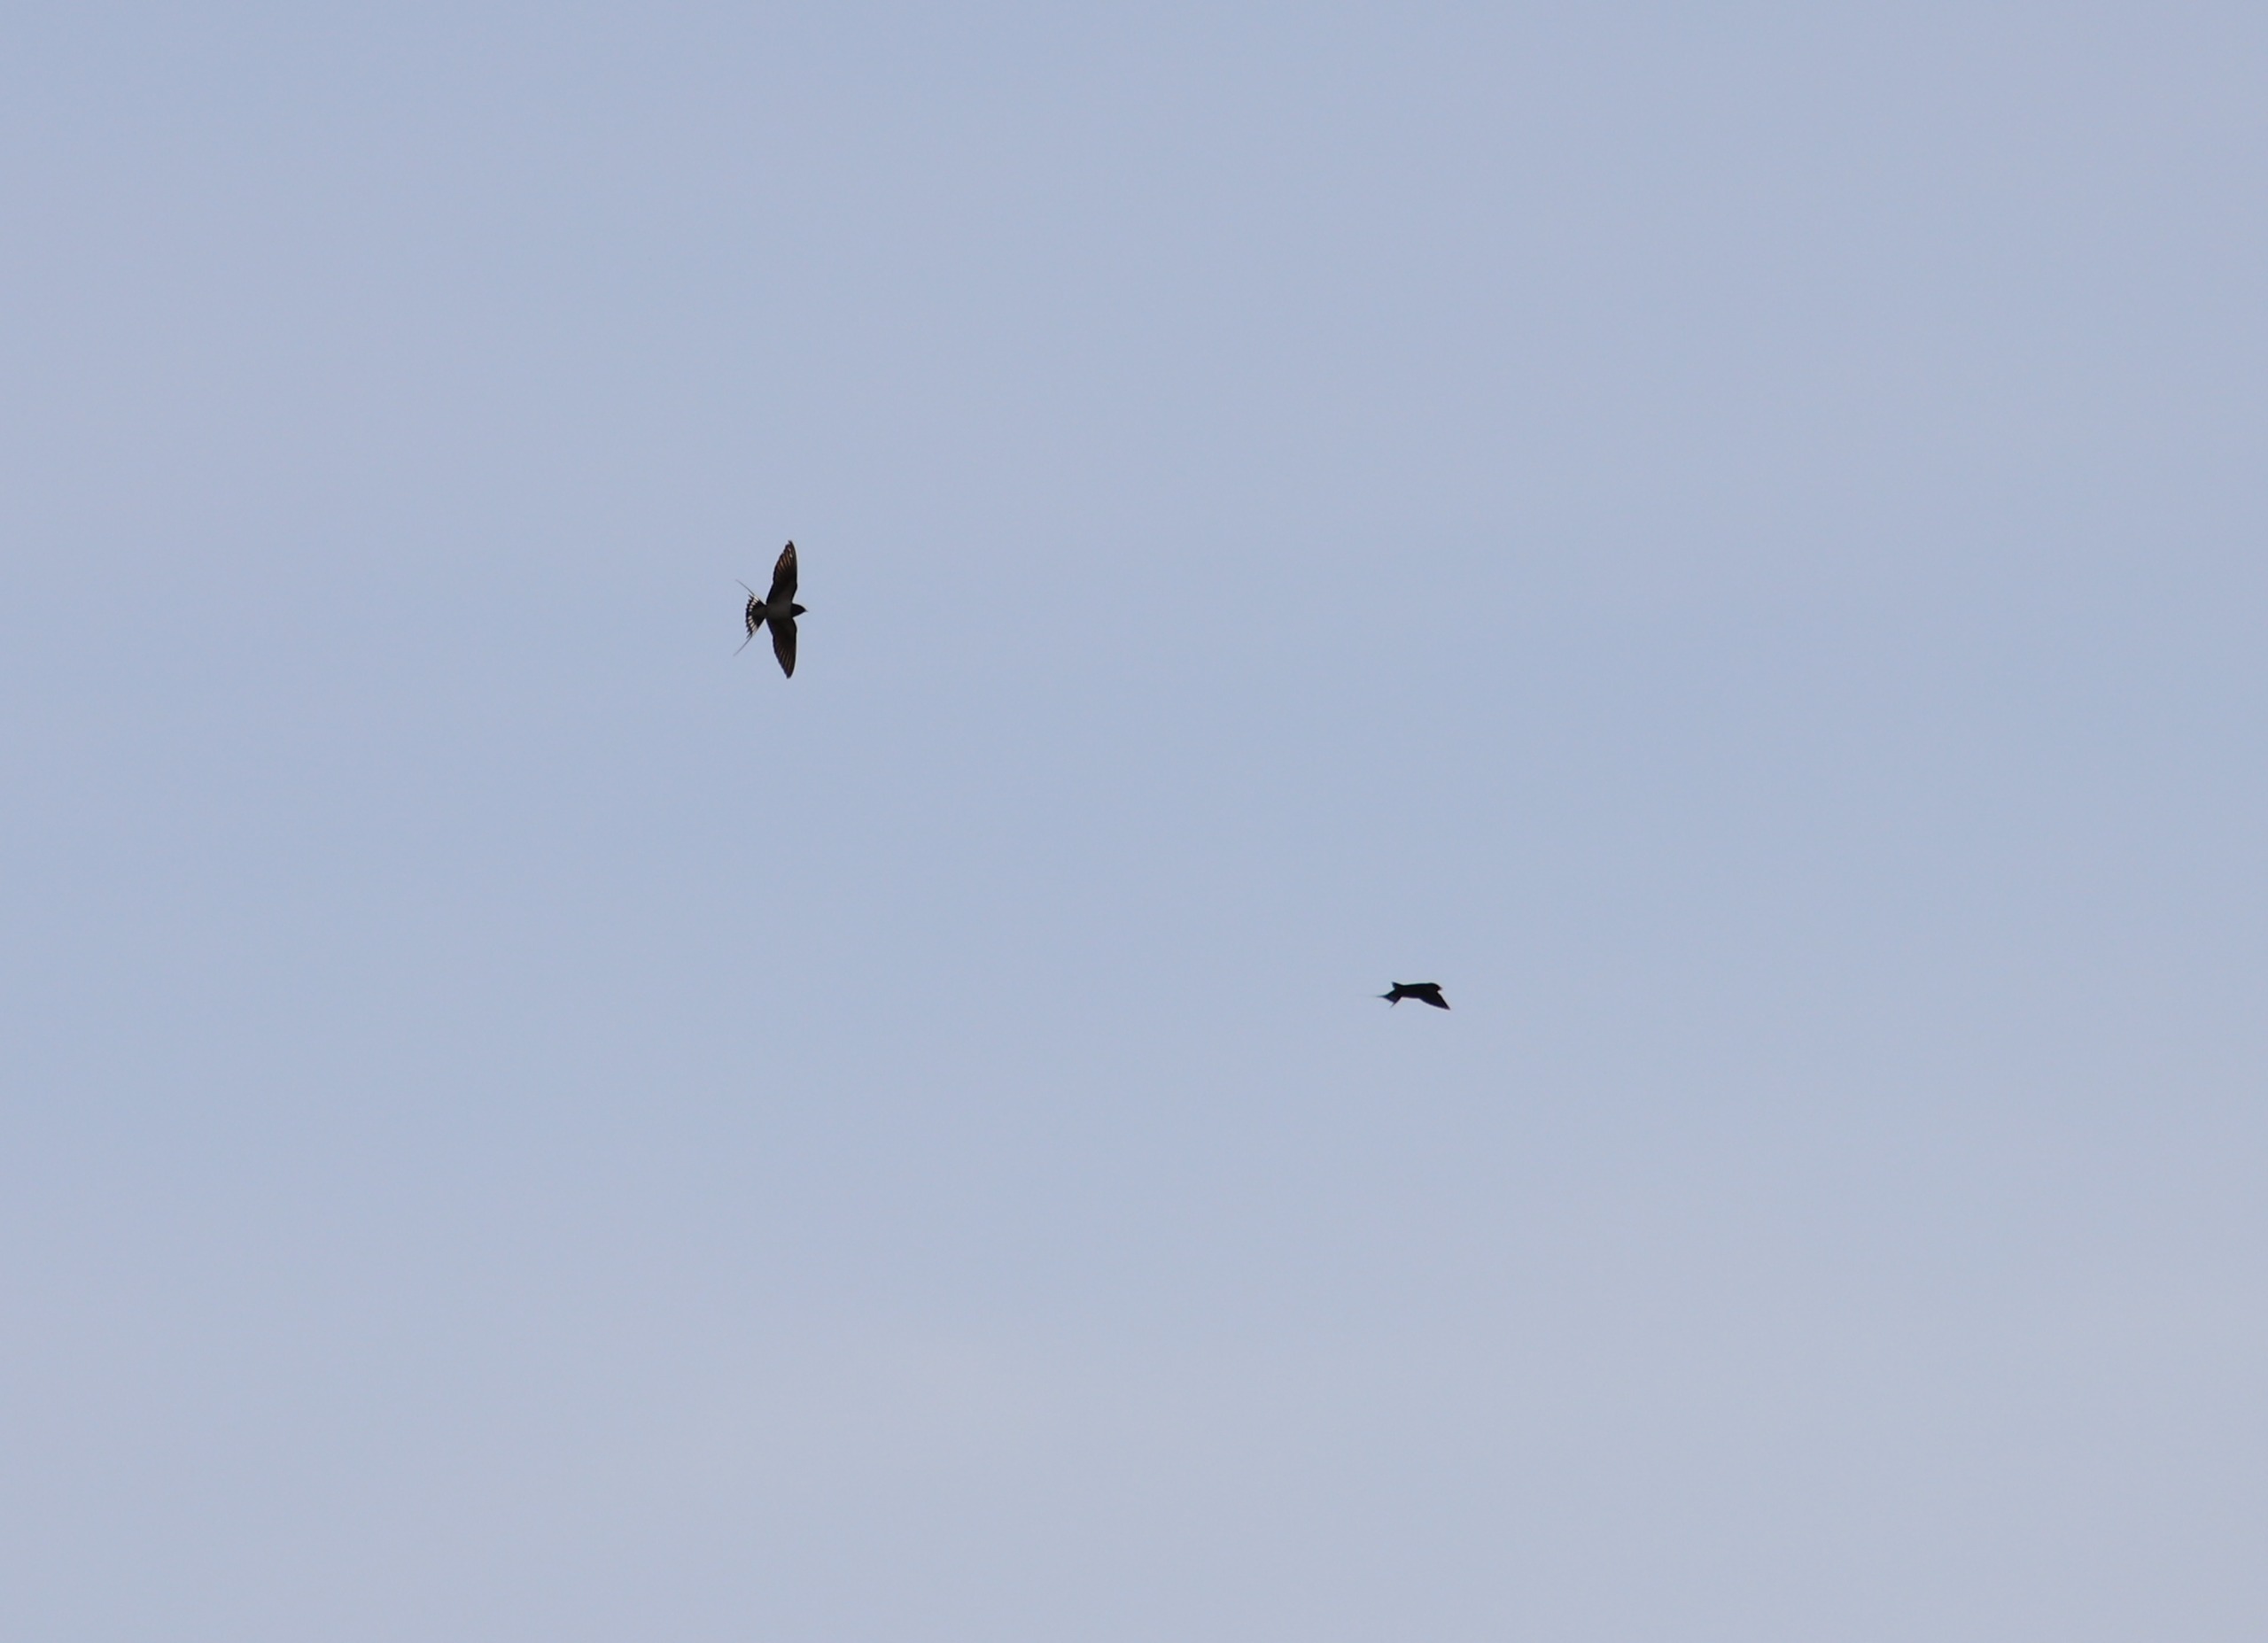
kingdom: Animalia
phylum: Chordata
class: Aves
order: Passeriformes
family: Hirundinidae
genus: Hirundo
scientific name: Hirundo rustica
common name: Landsvale
